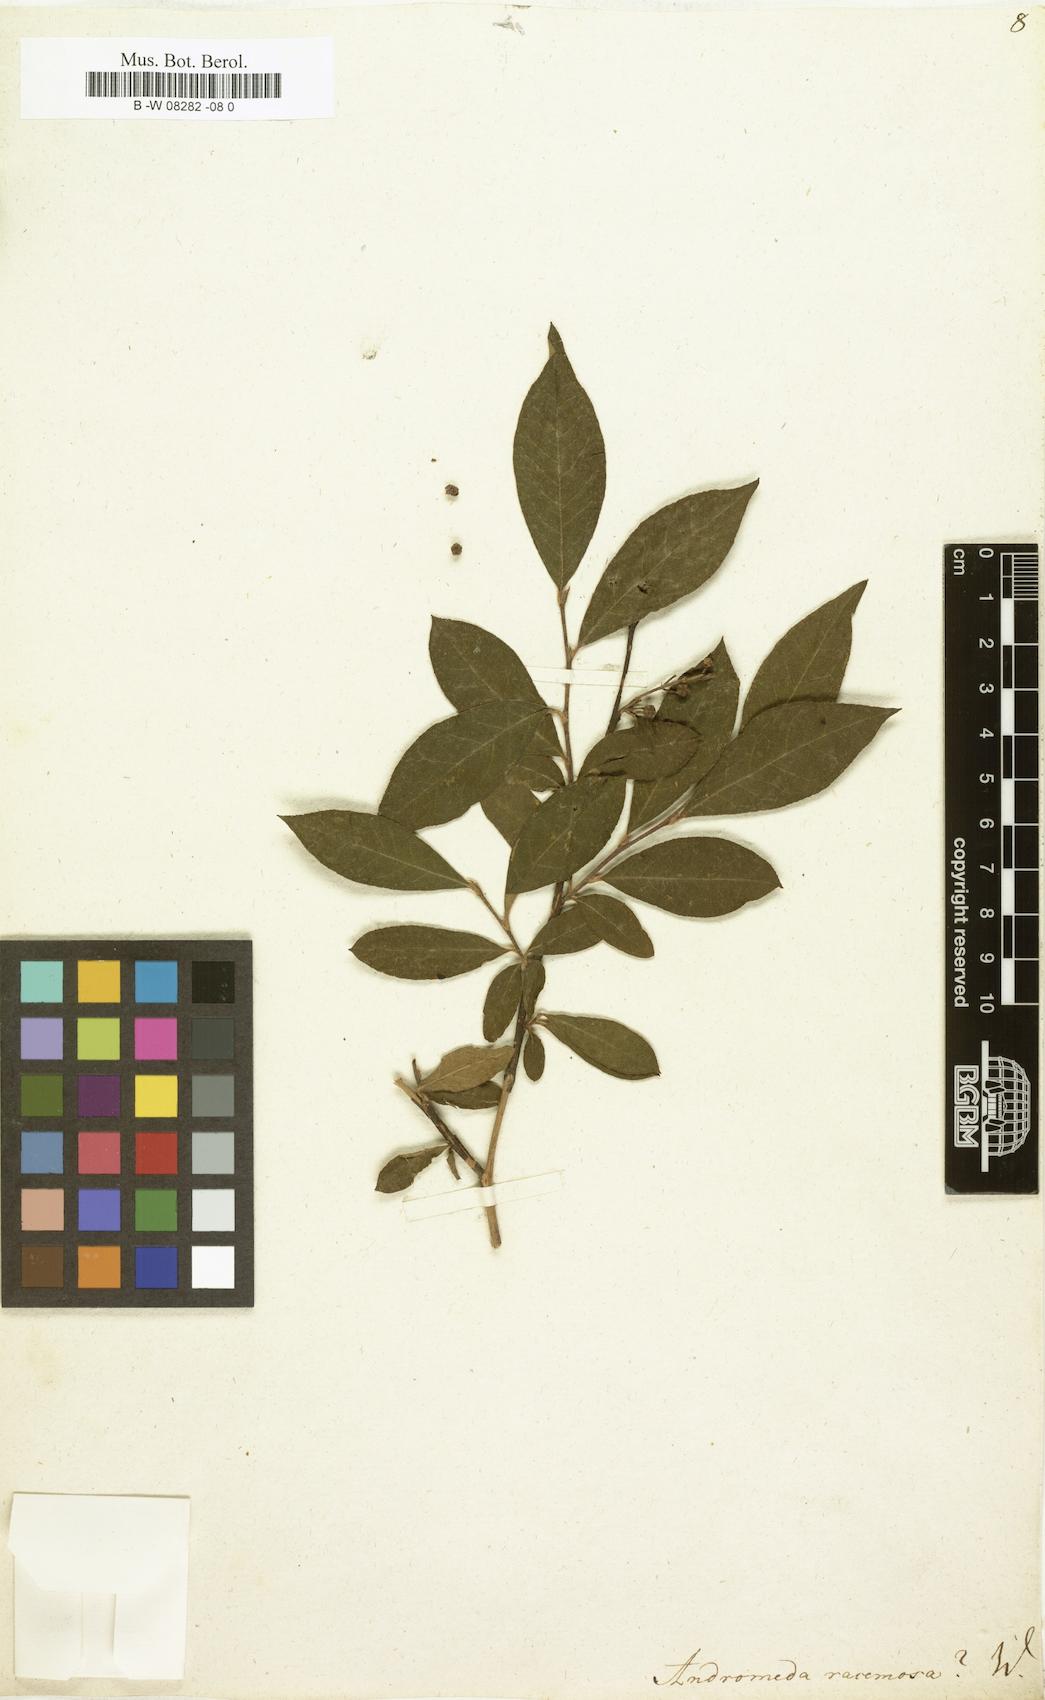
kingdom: Plantae
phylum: Tracheophyta
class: Magnoliopsida
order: Ericales
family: Ericaceae
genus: Eubotrys
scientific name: Eubotrys racemosa
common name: Fetterbush
